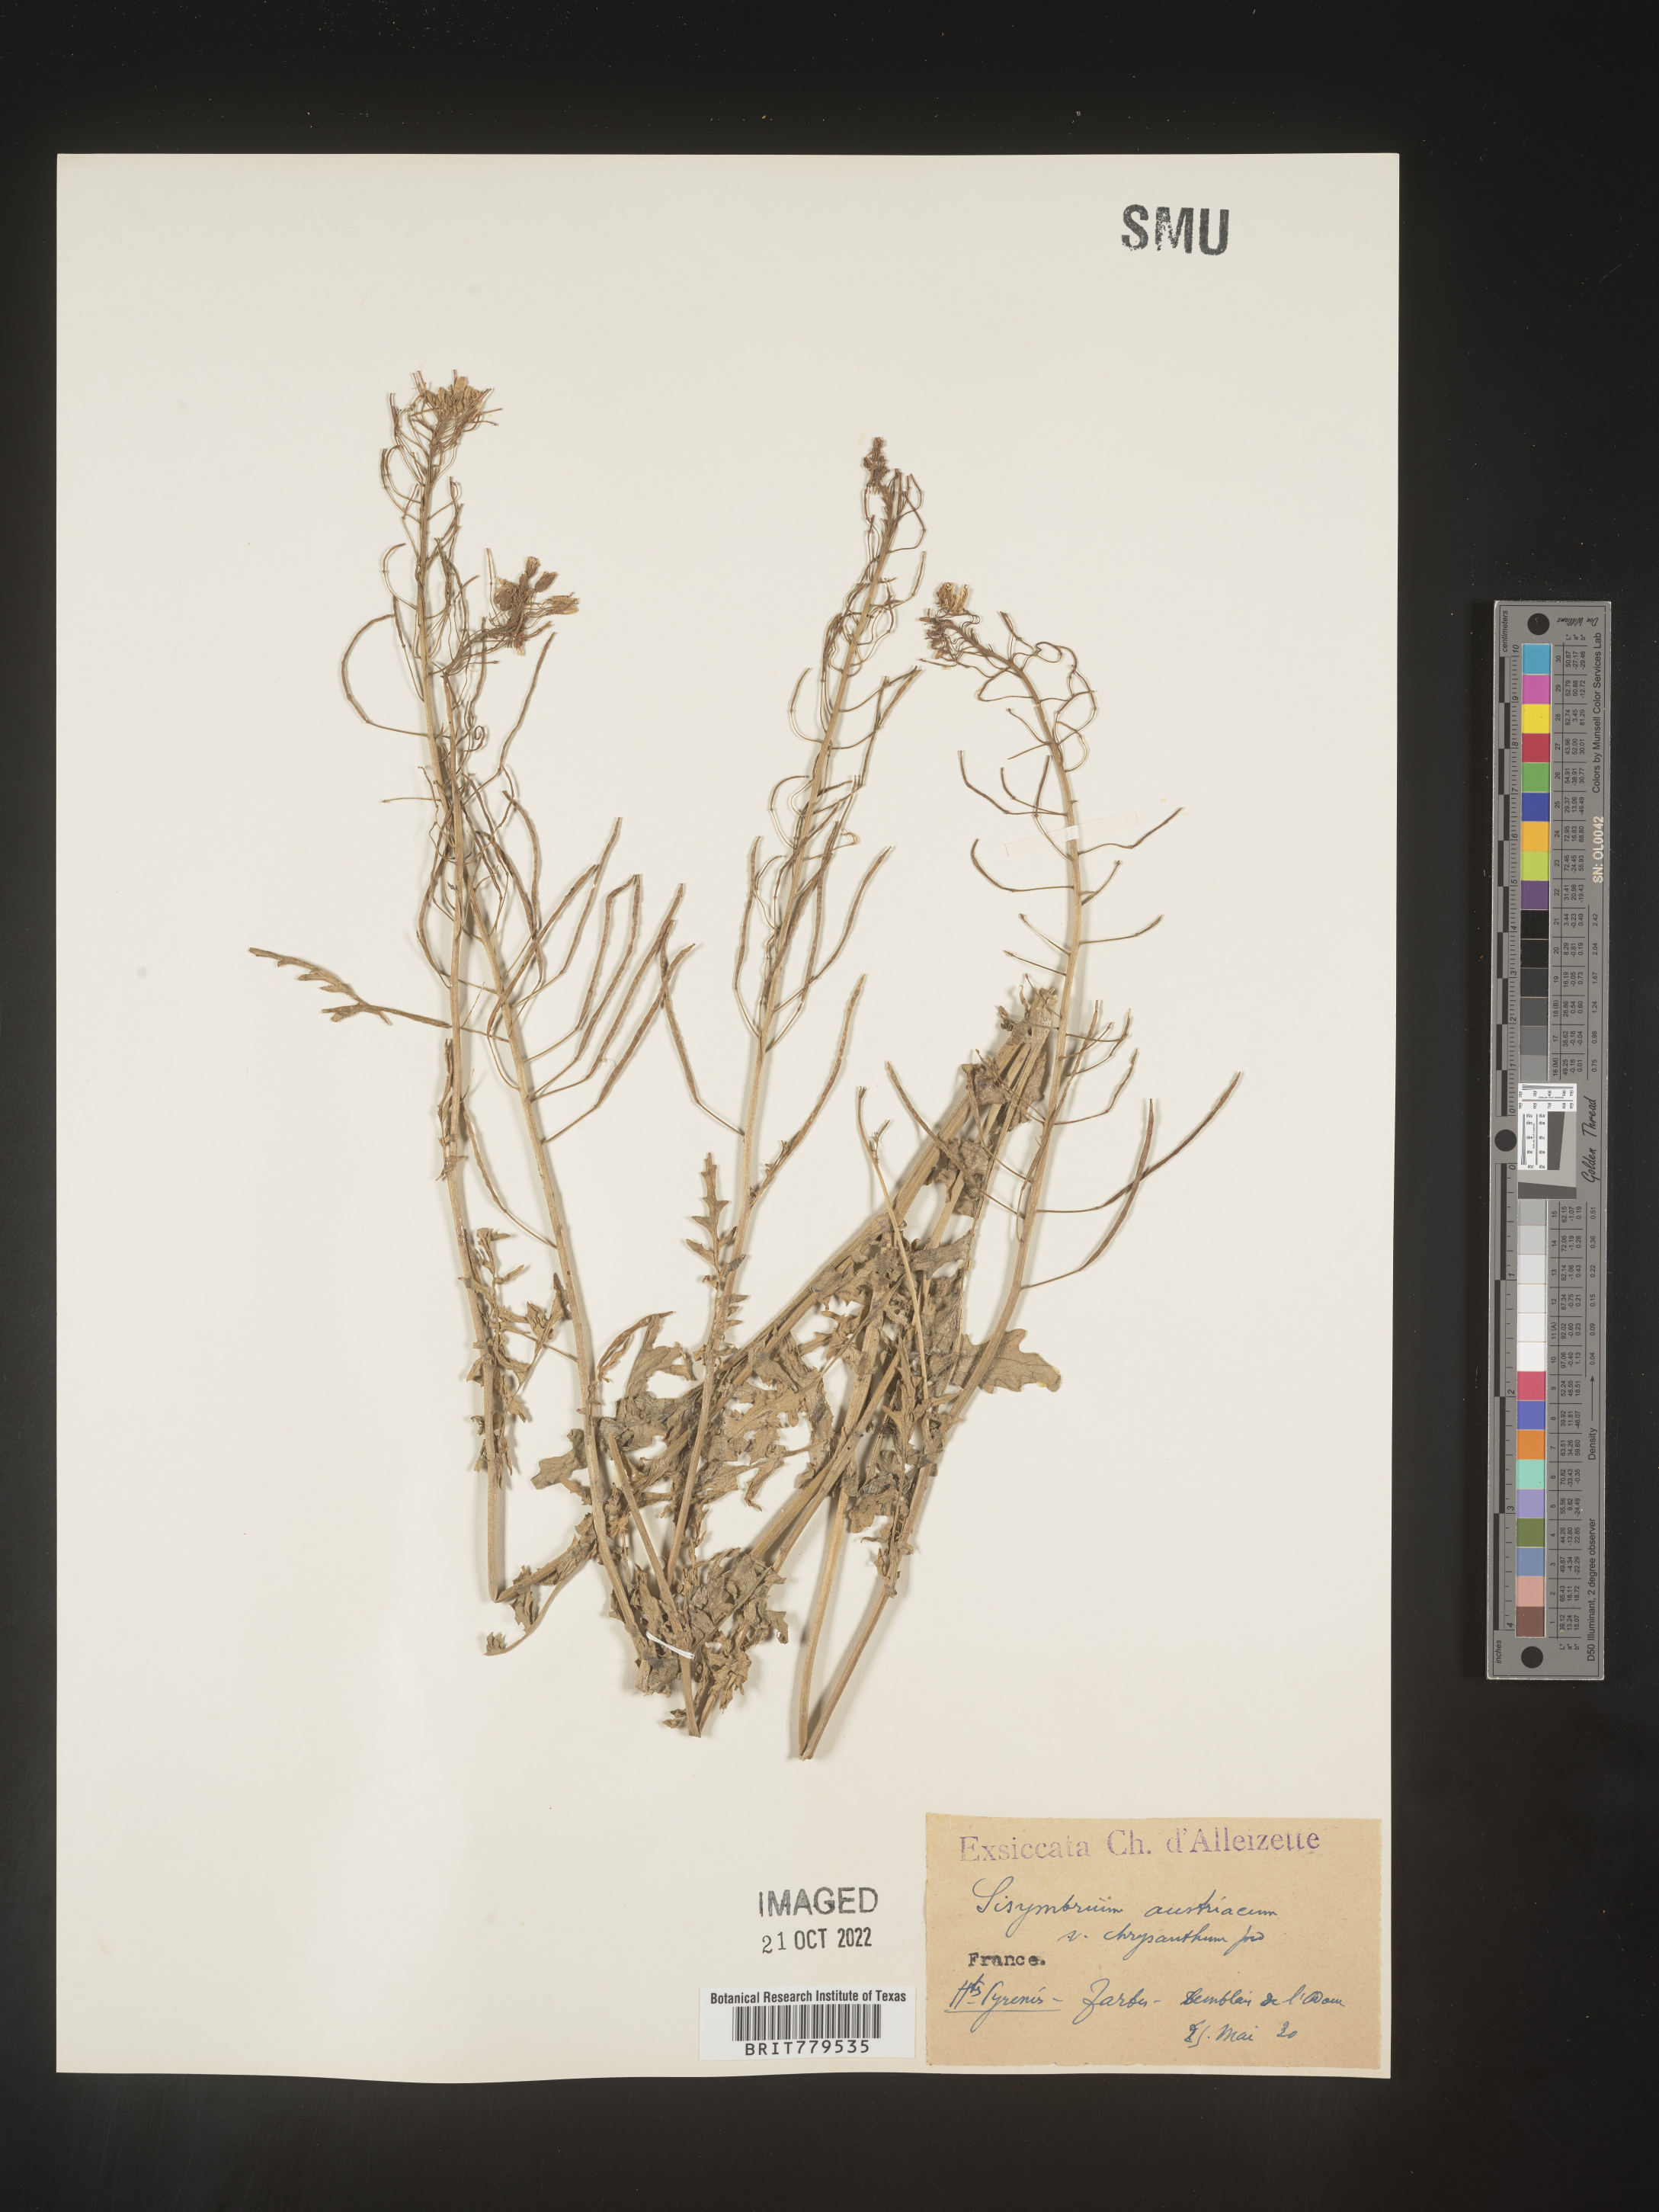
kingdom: Plantae
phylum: Tracheophyta
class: Magnoliopsida
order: Brassicales
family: Brassicaceae
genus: Sisymbrium
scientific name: Sisymbrium
